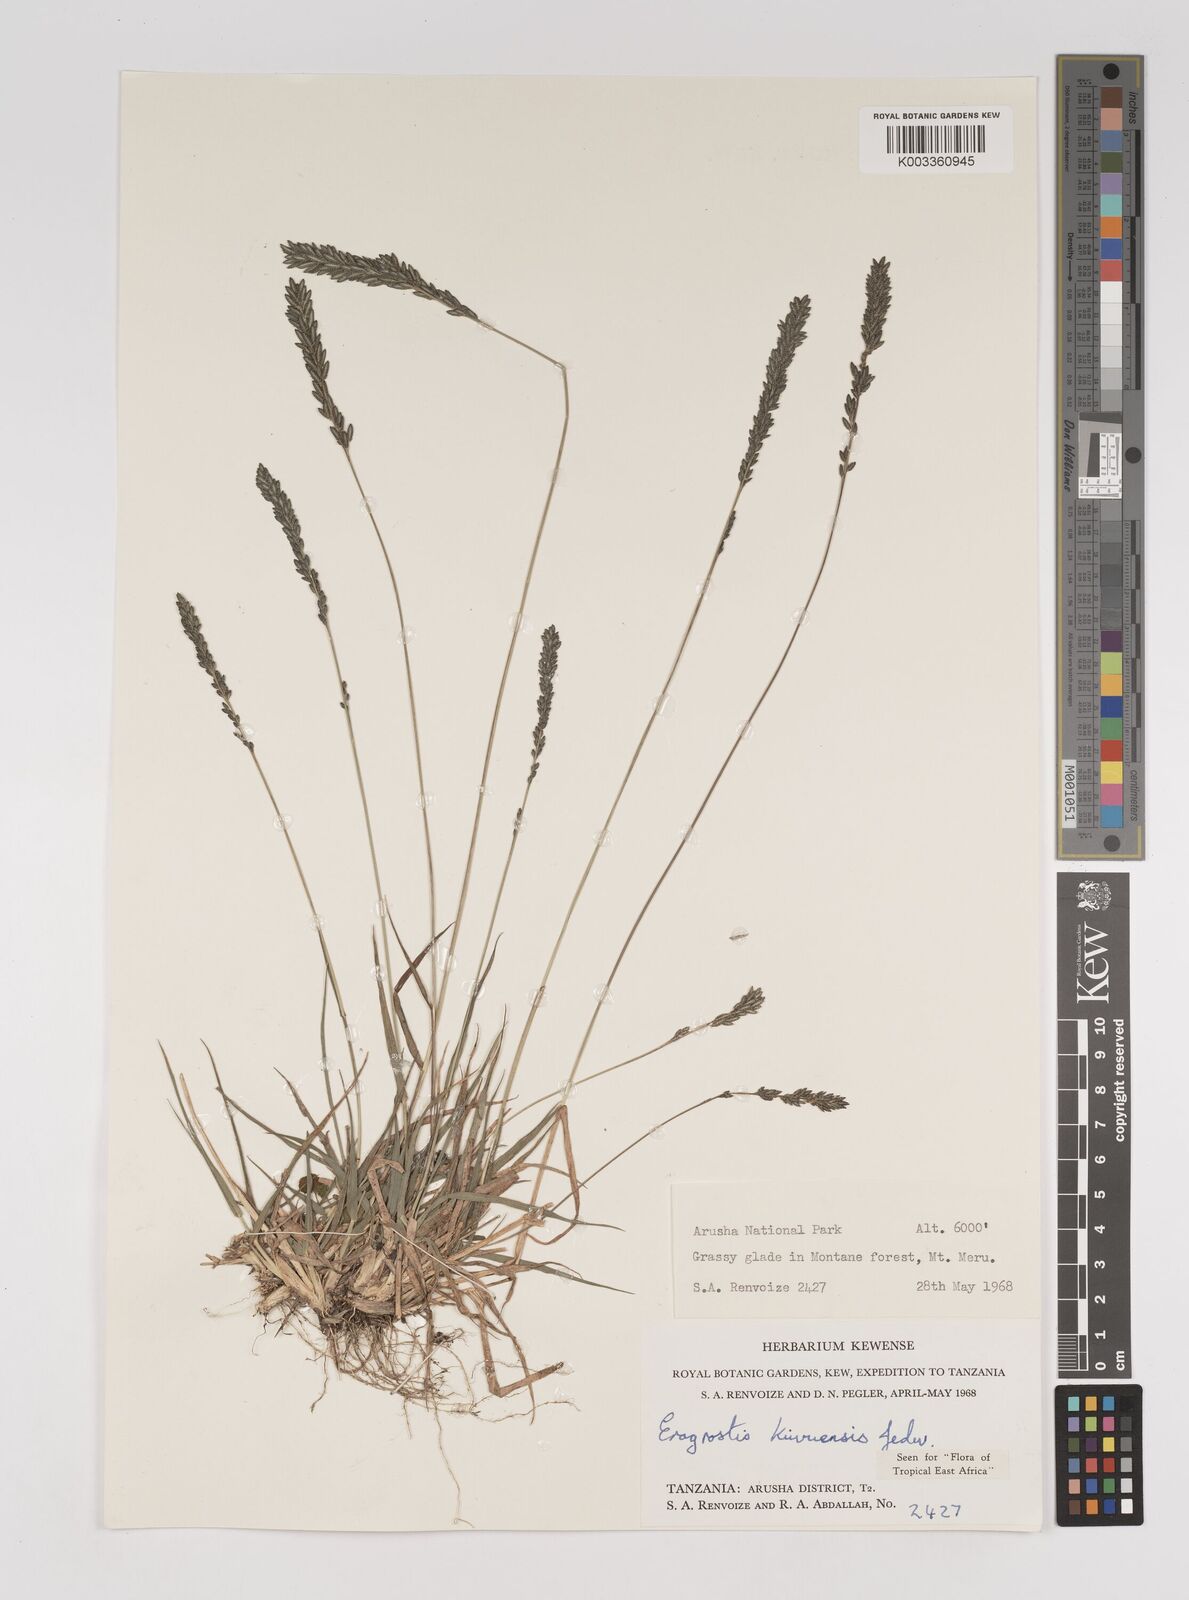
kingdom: Plantae
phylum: Tracheophyta
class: Liliopsida
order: Poales
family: Poaceae
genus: Eragrostis
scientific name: Eragrostis schweinfurthii
